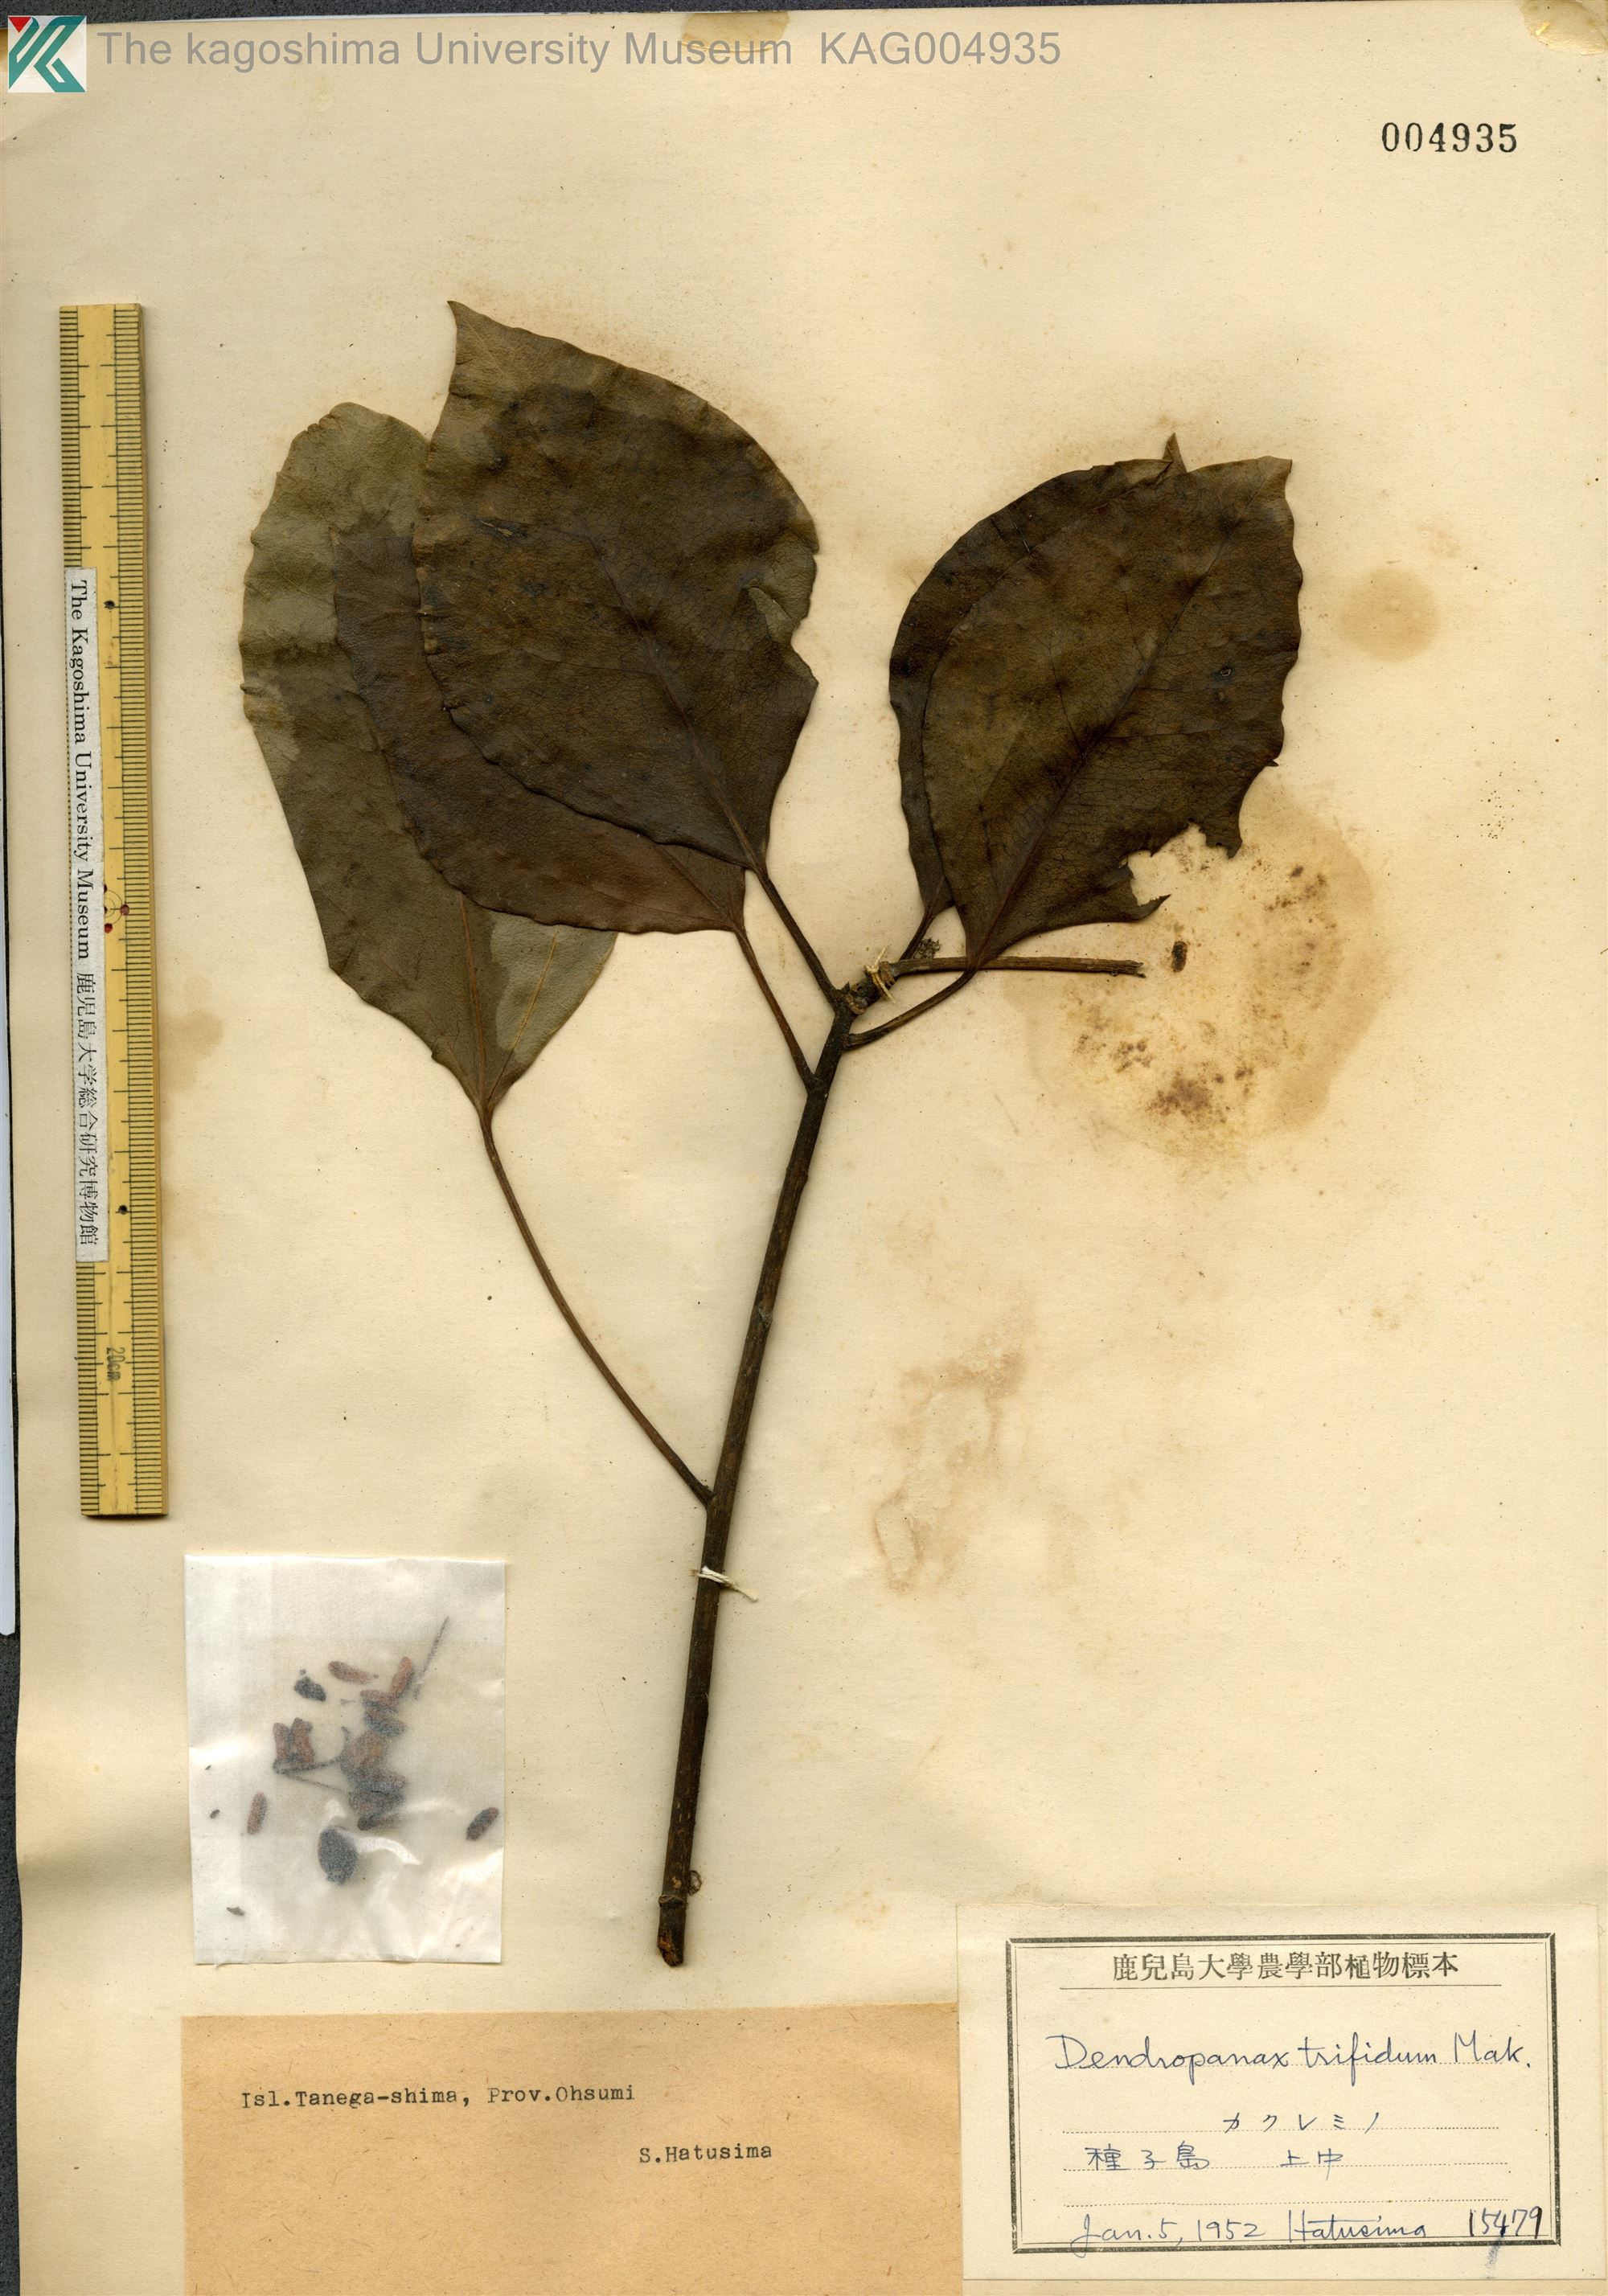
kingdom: Plantae
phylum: Tracheophyta
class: Magnoliopsida
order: Apiales
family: Araliaceae
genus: Dendropanax
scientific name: Dendropanax trifidus
